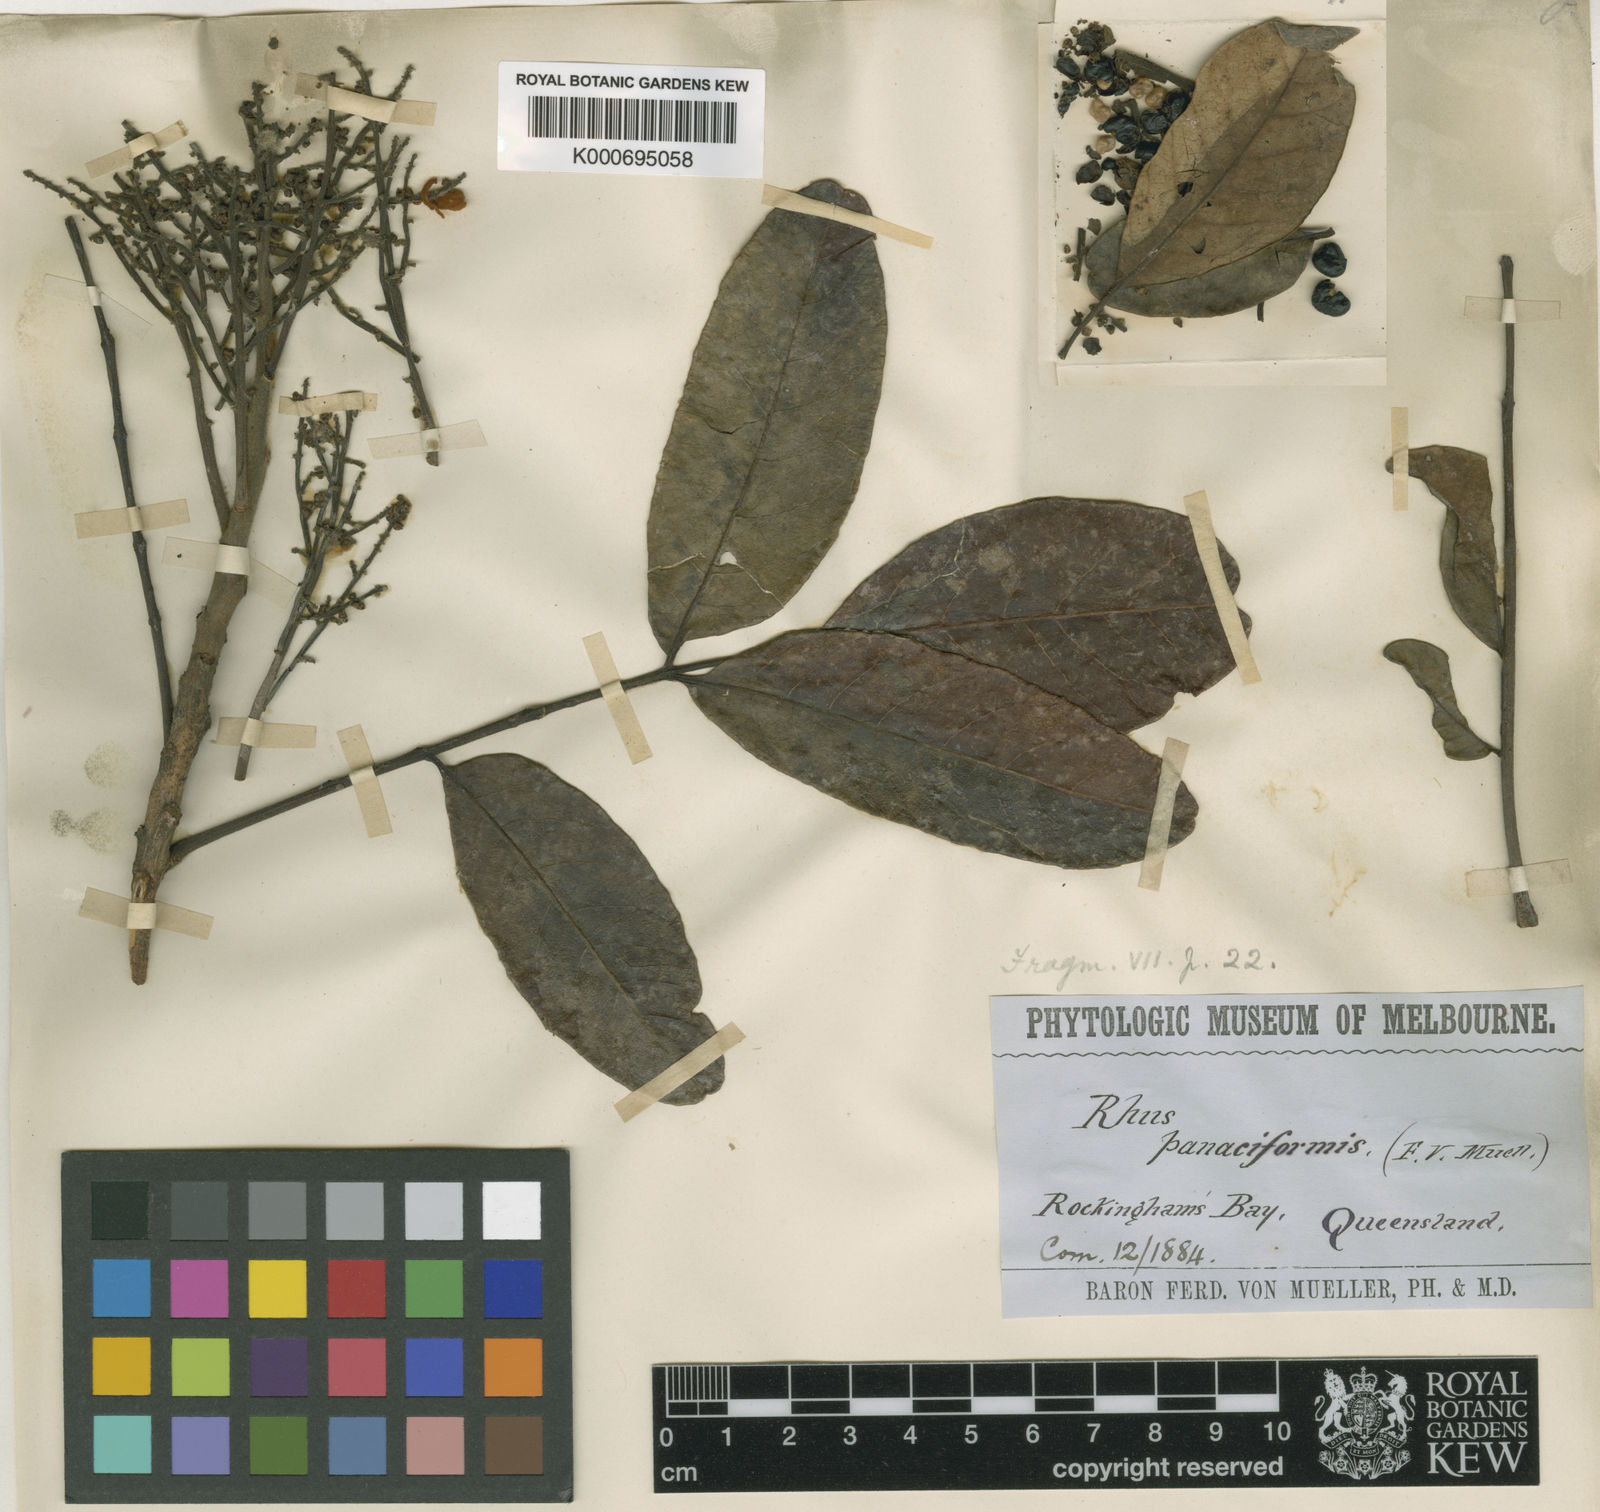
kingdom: Plantae
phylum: Tracheophyta
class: Magnoliopsida
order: Sapindales
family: Anacardiaceae
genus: Melanococca
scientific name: Melanococca tomentosa
